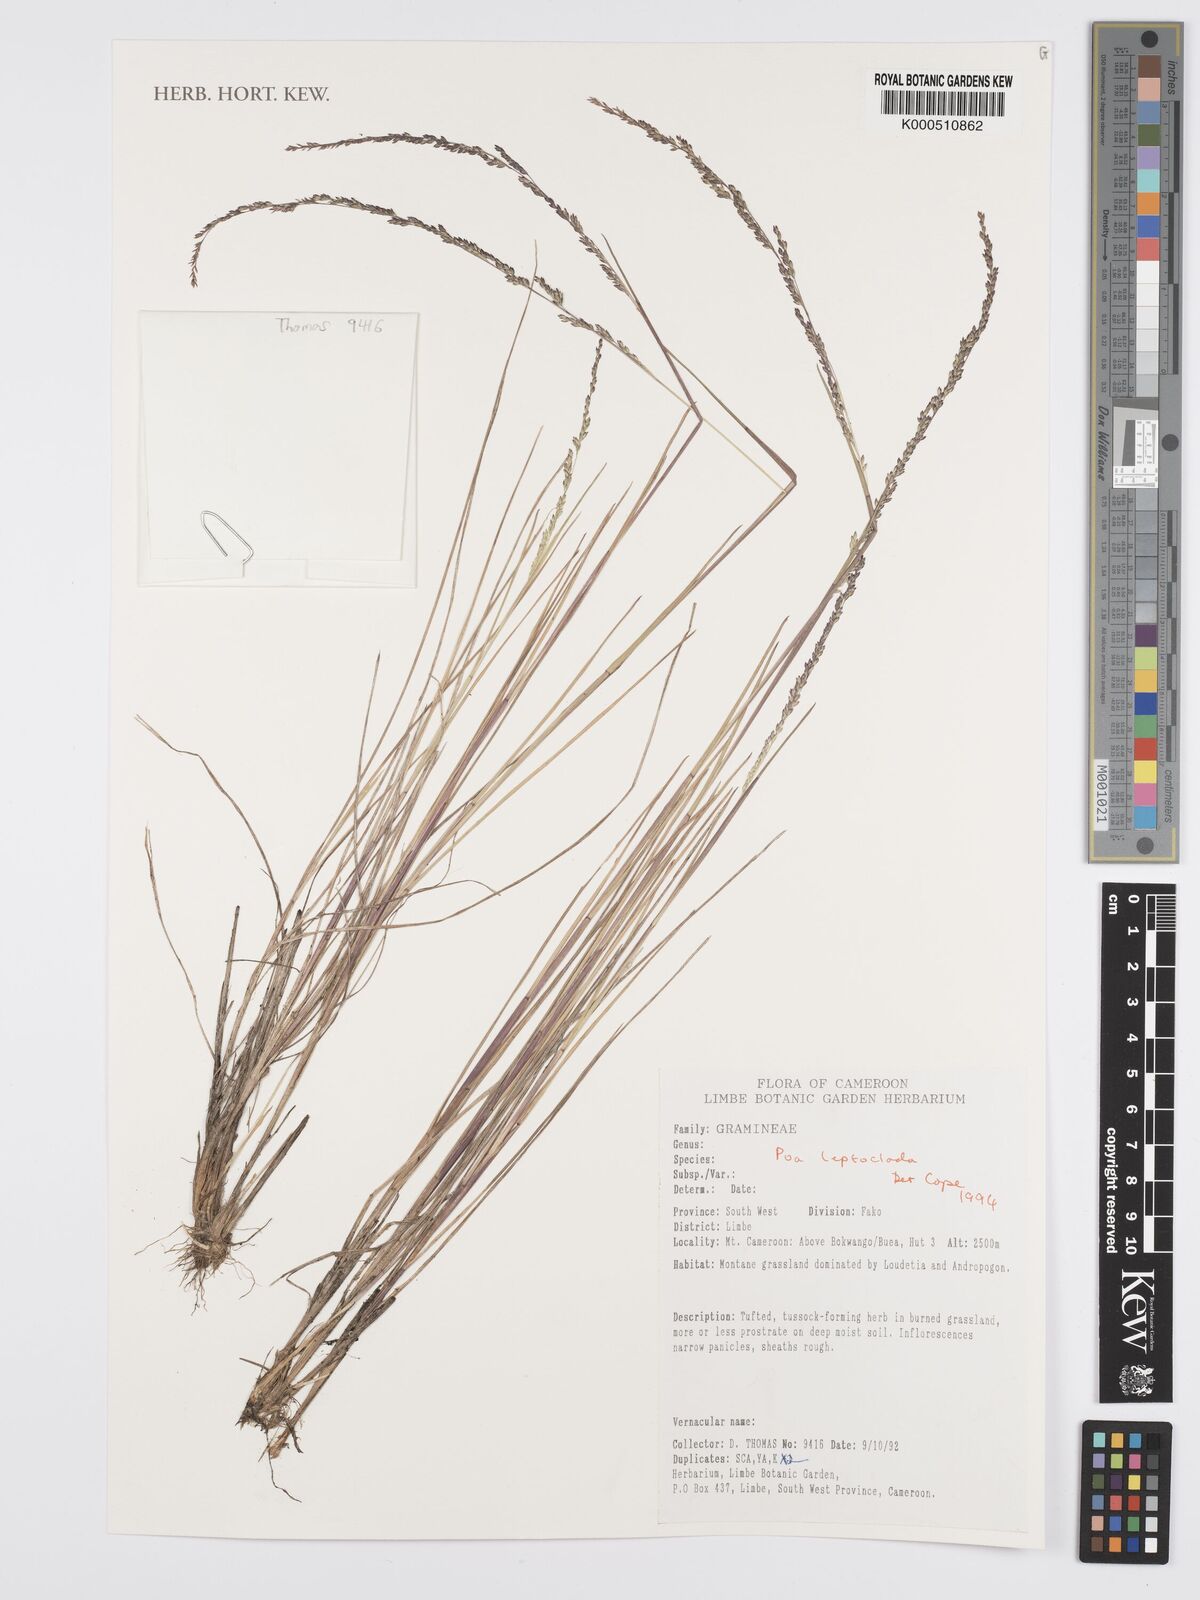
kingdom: Plantae
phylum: Tracheophyta
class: Liliopsida
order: Poales
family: Poaceae
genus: Poa
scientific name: Poa leptoclada
